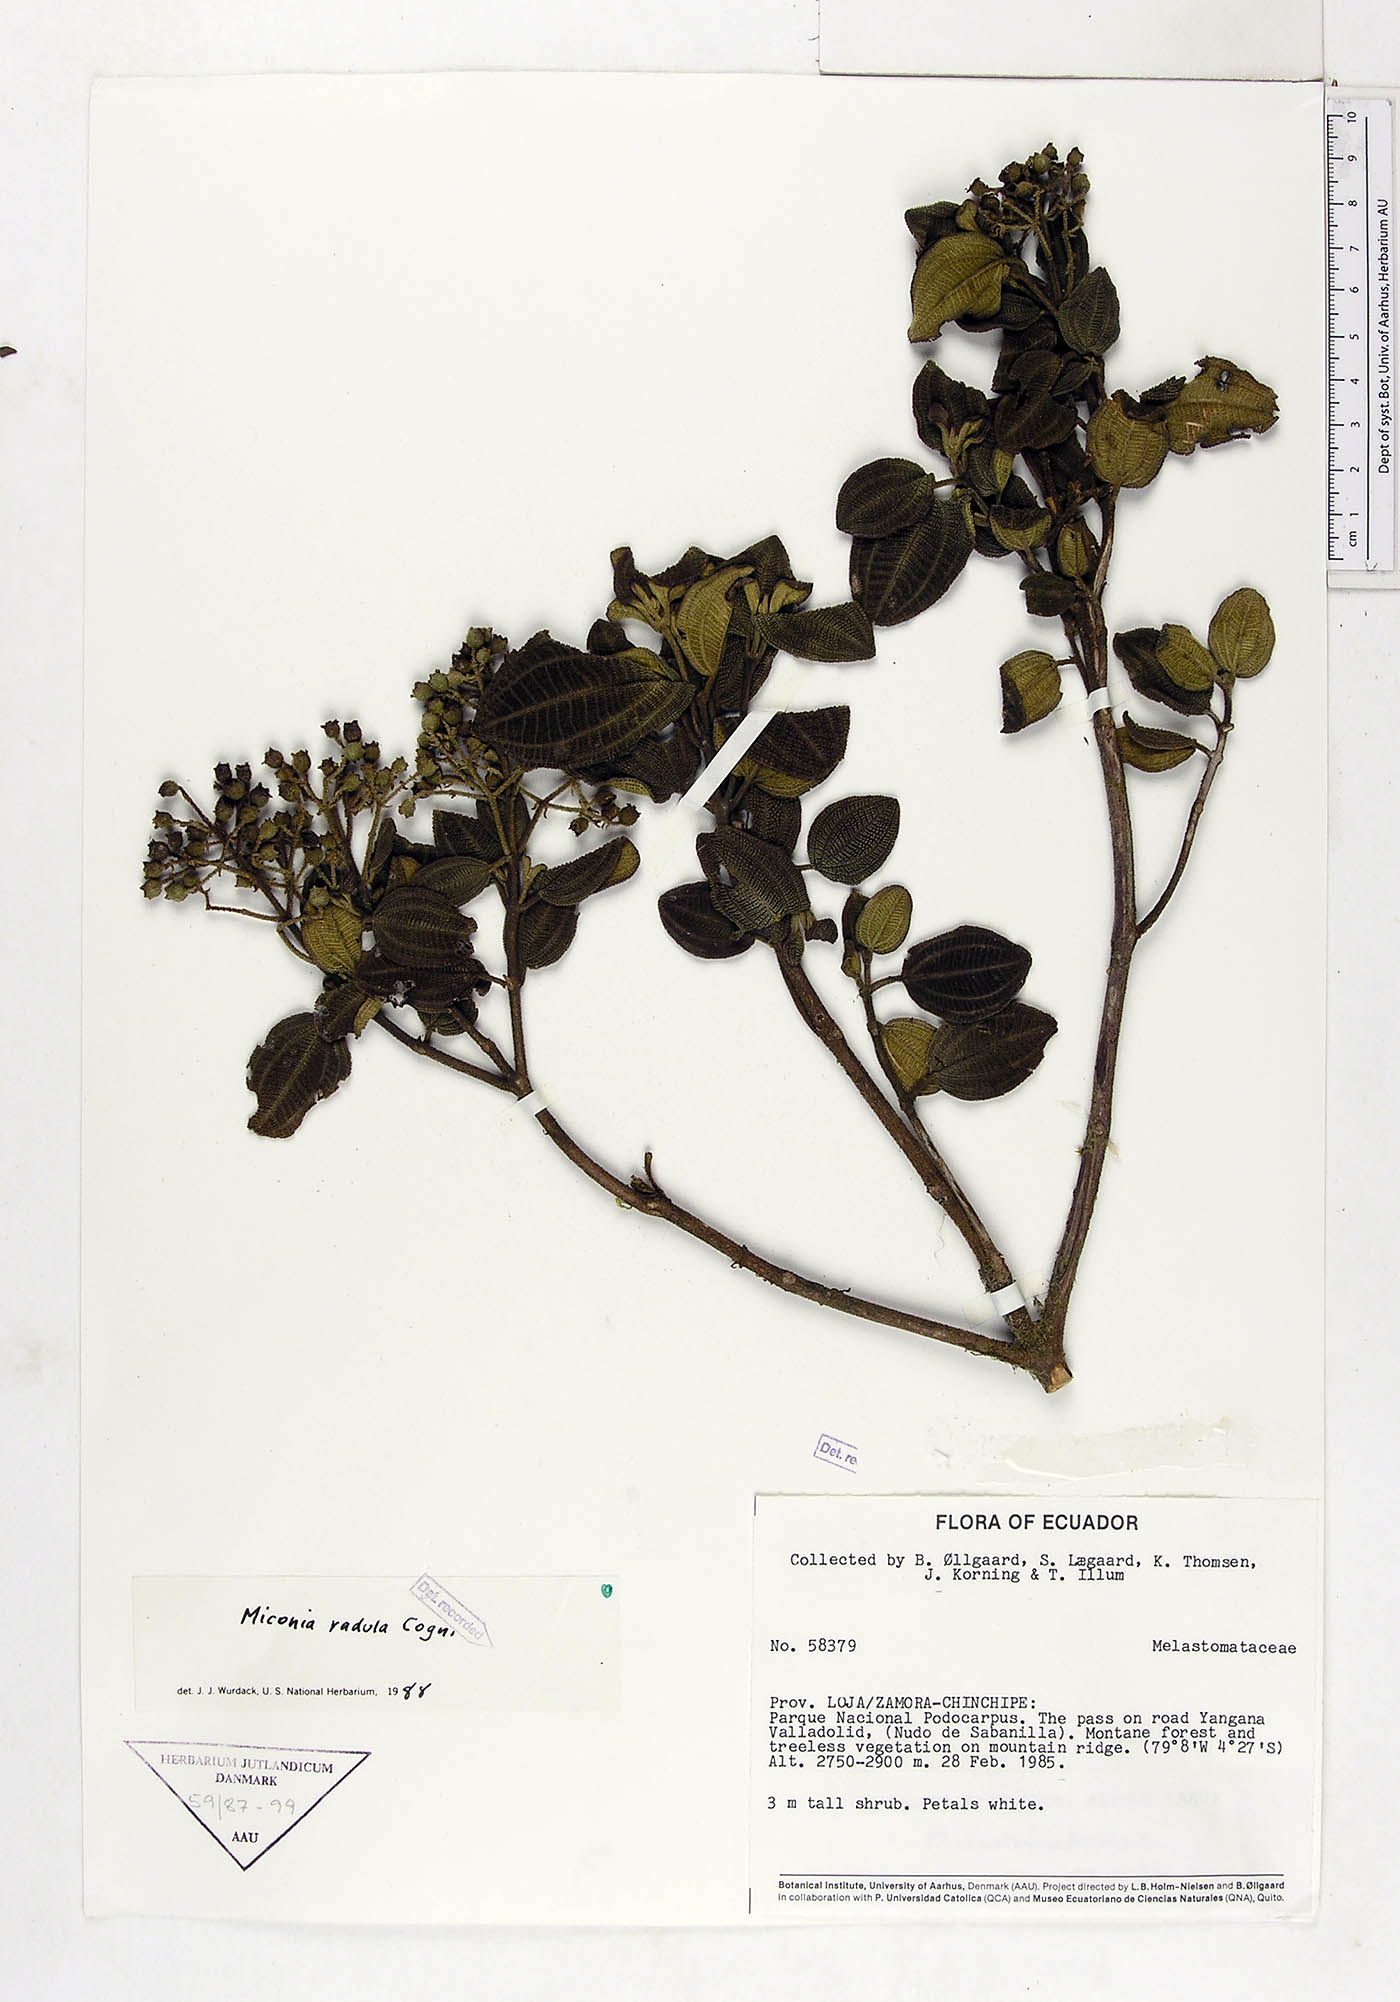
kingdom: Plantae
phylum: Tracheophyta
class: Magnoliopsida
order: Myrtales
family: Melastomataceae
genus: Miconia
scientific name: Miconia radula
